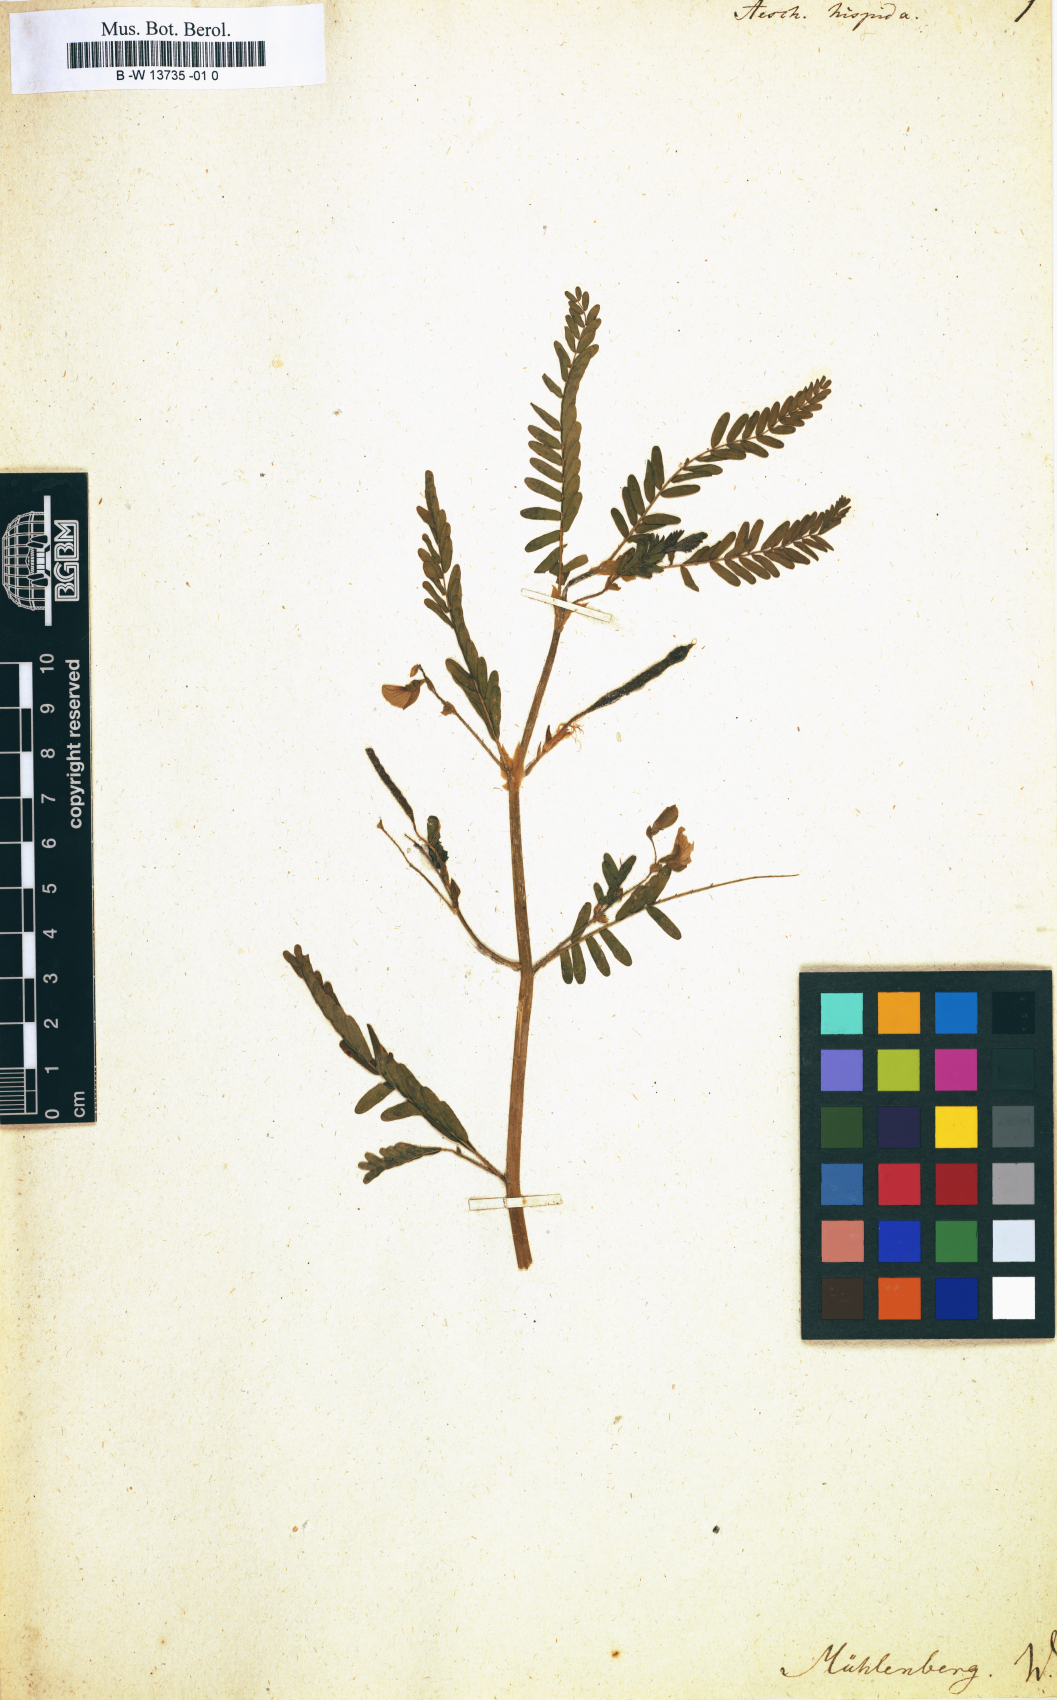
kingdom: Plantae
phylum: Tracheophyta
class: Magnoliopsida
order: Fabales
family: Fabaceae
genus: Aeschynomene
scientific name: Aeschynomene virginica
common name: Sensitive joint-vetch
